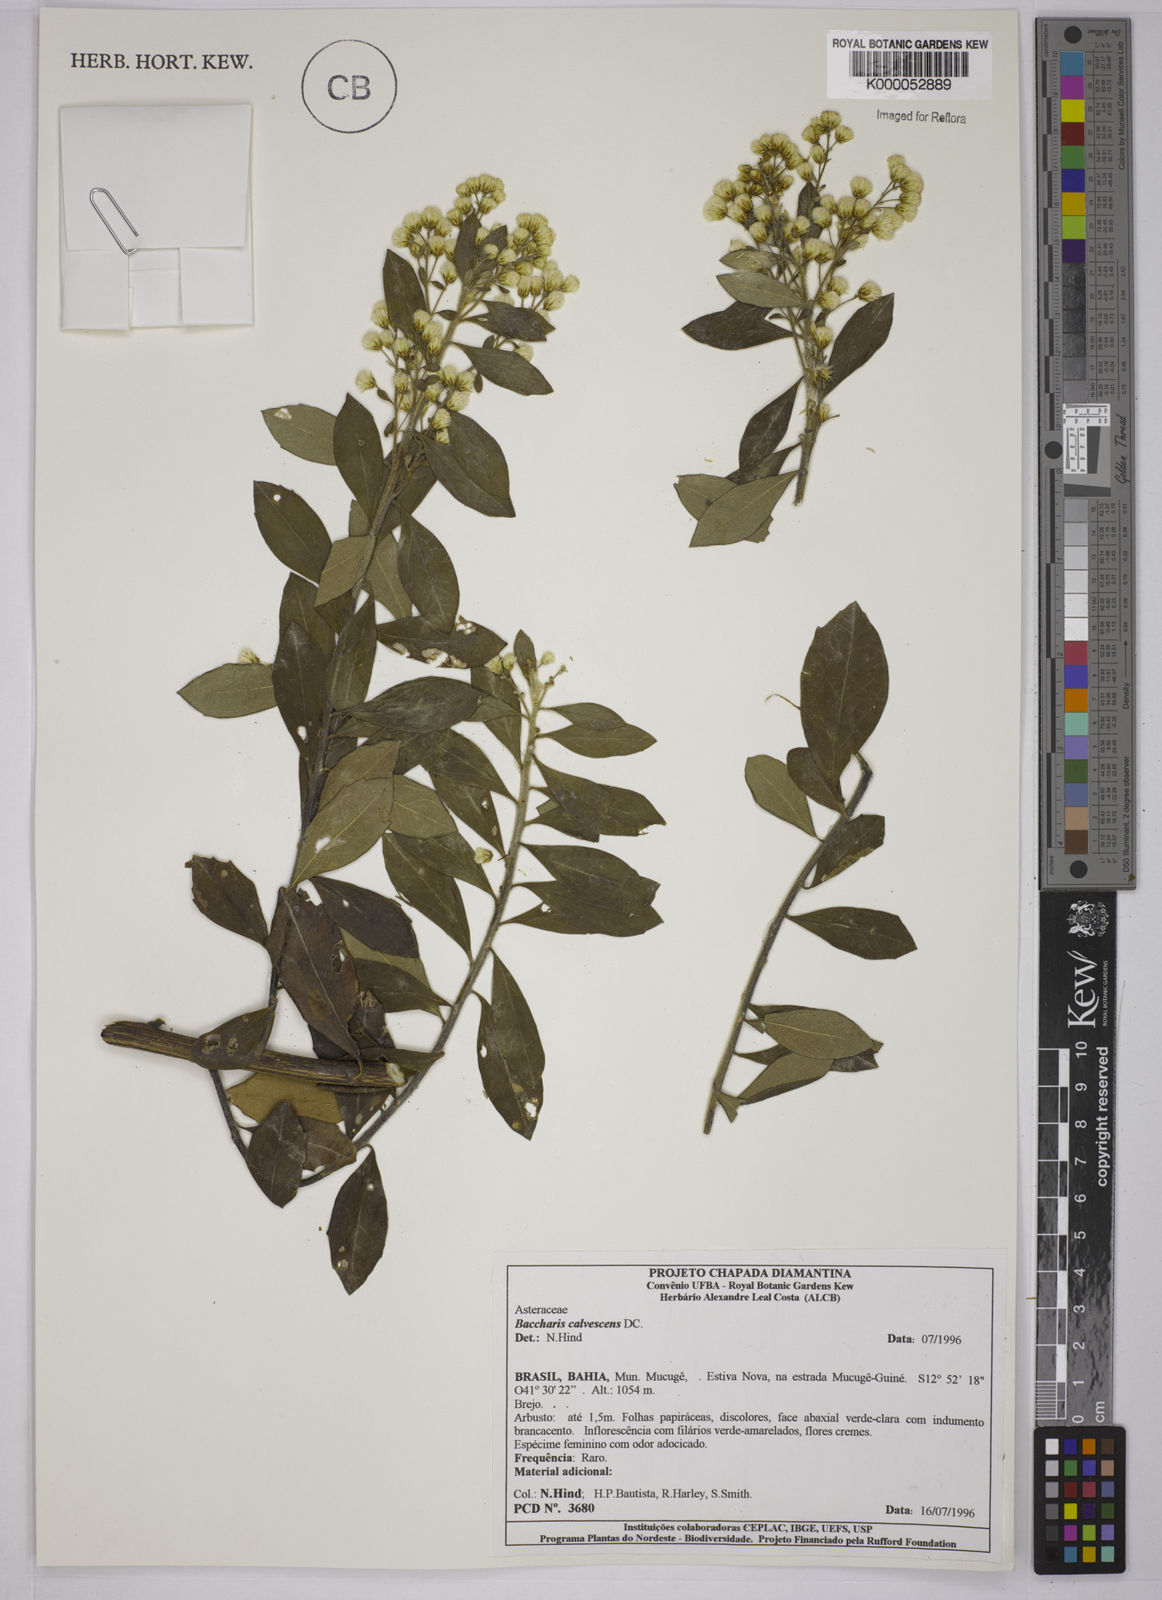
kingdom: Plantae
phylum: Tracheophyta
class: Magnoliopsida
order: Asterales
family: Asteraceae
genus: Baccharis
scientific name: Baccharis calvescens
